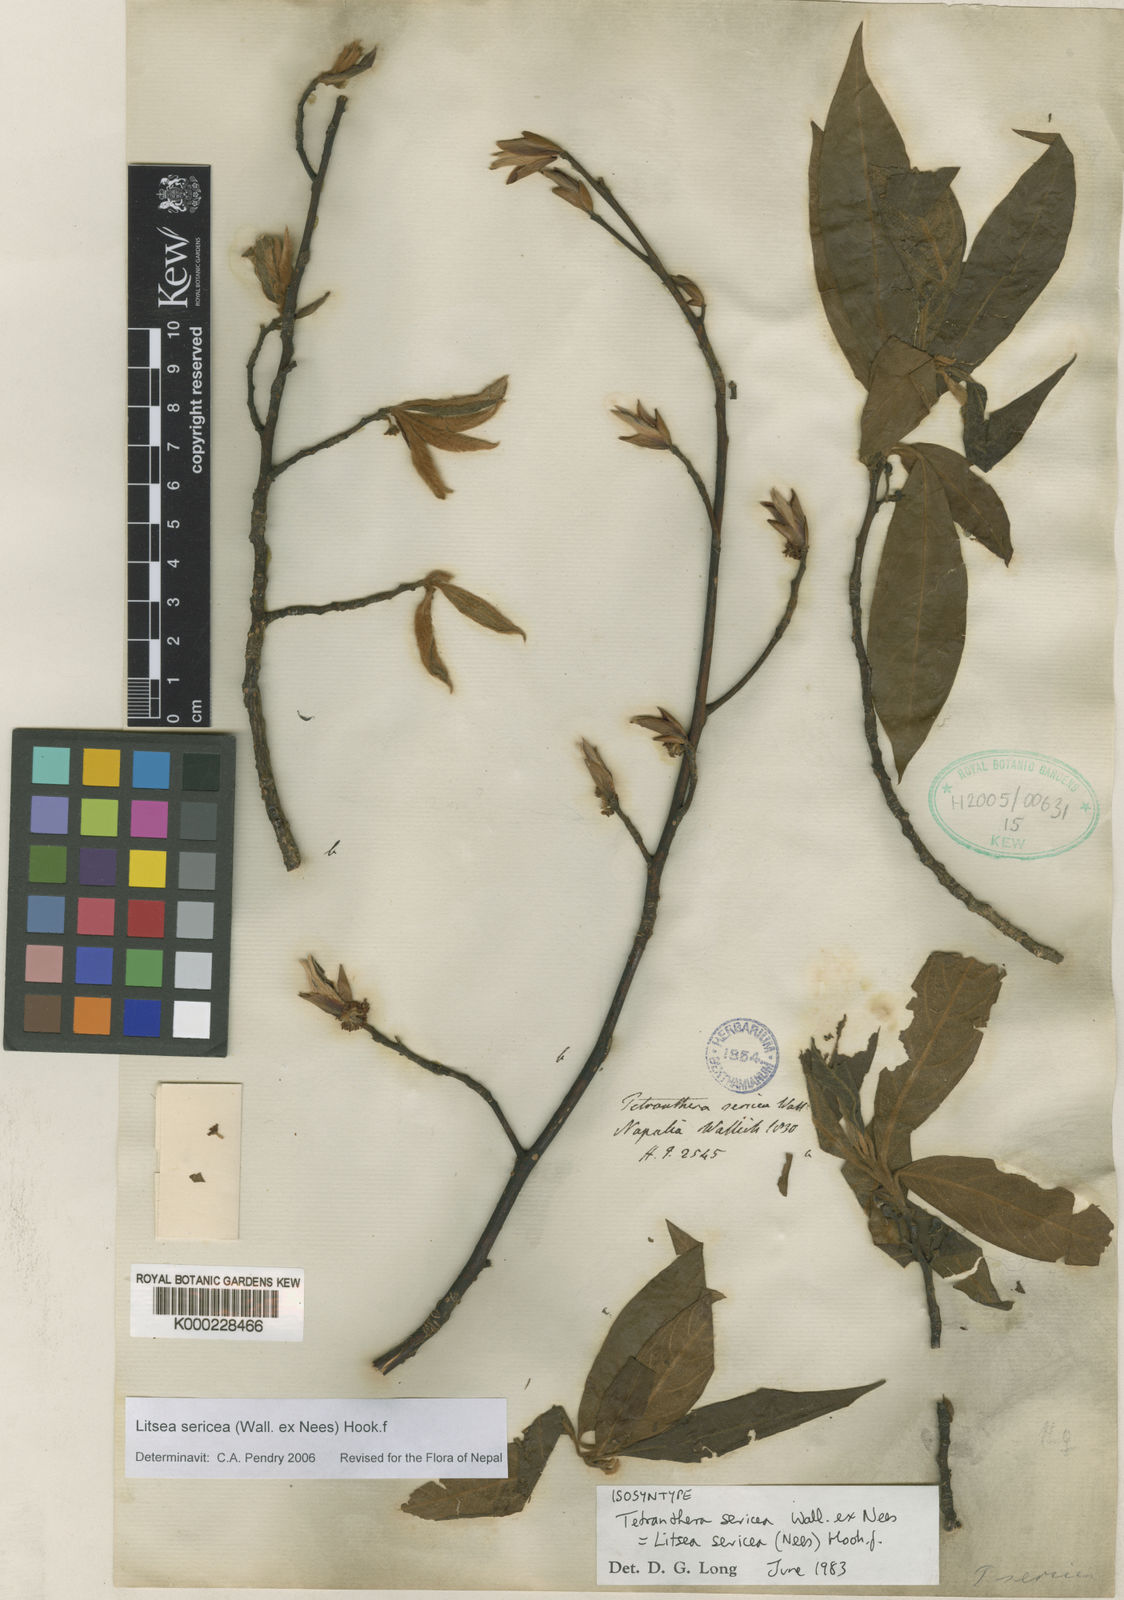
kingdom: Plantae
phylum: Tracheophyta
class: Magnoliopsida
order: Laurales
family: Lauraceae
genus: Litsea
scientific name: Litsea sericea
